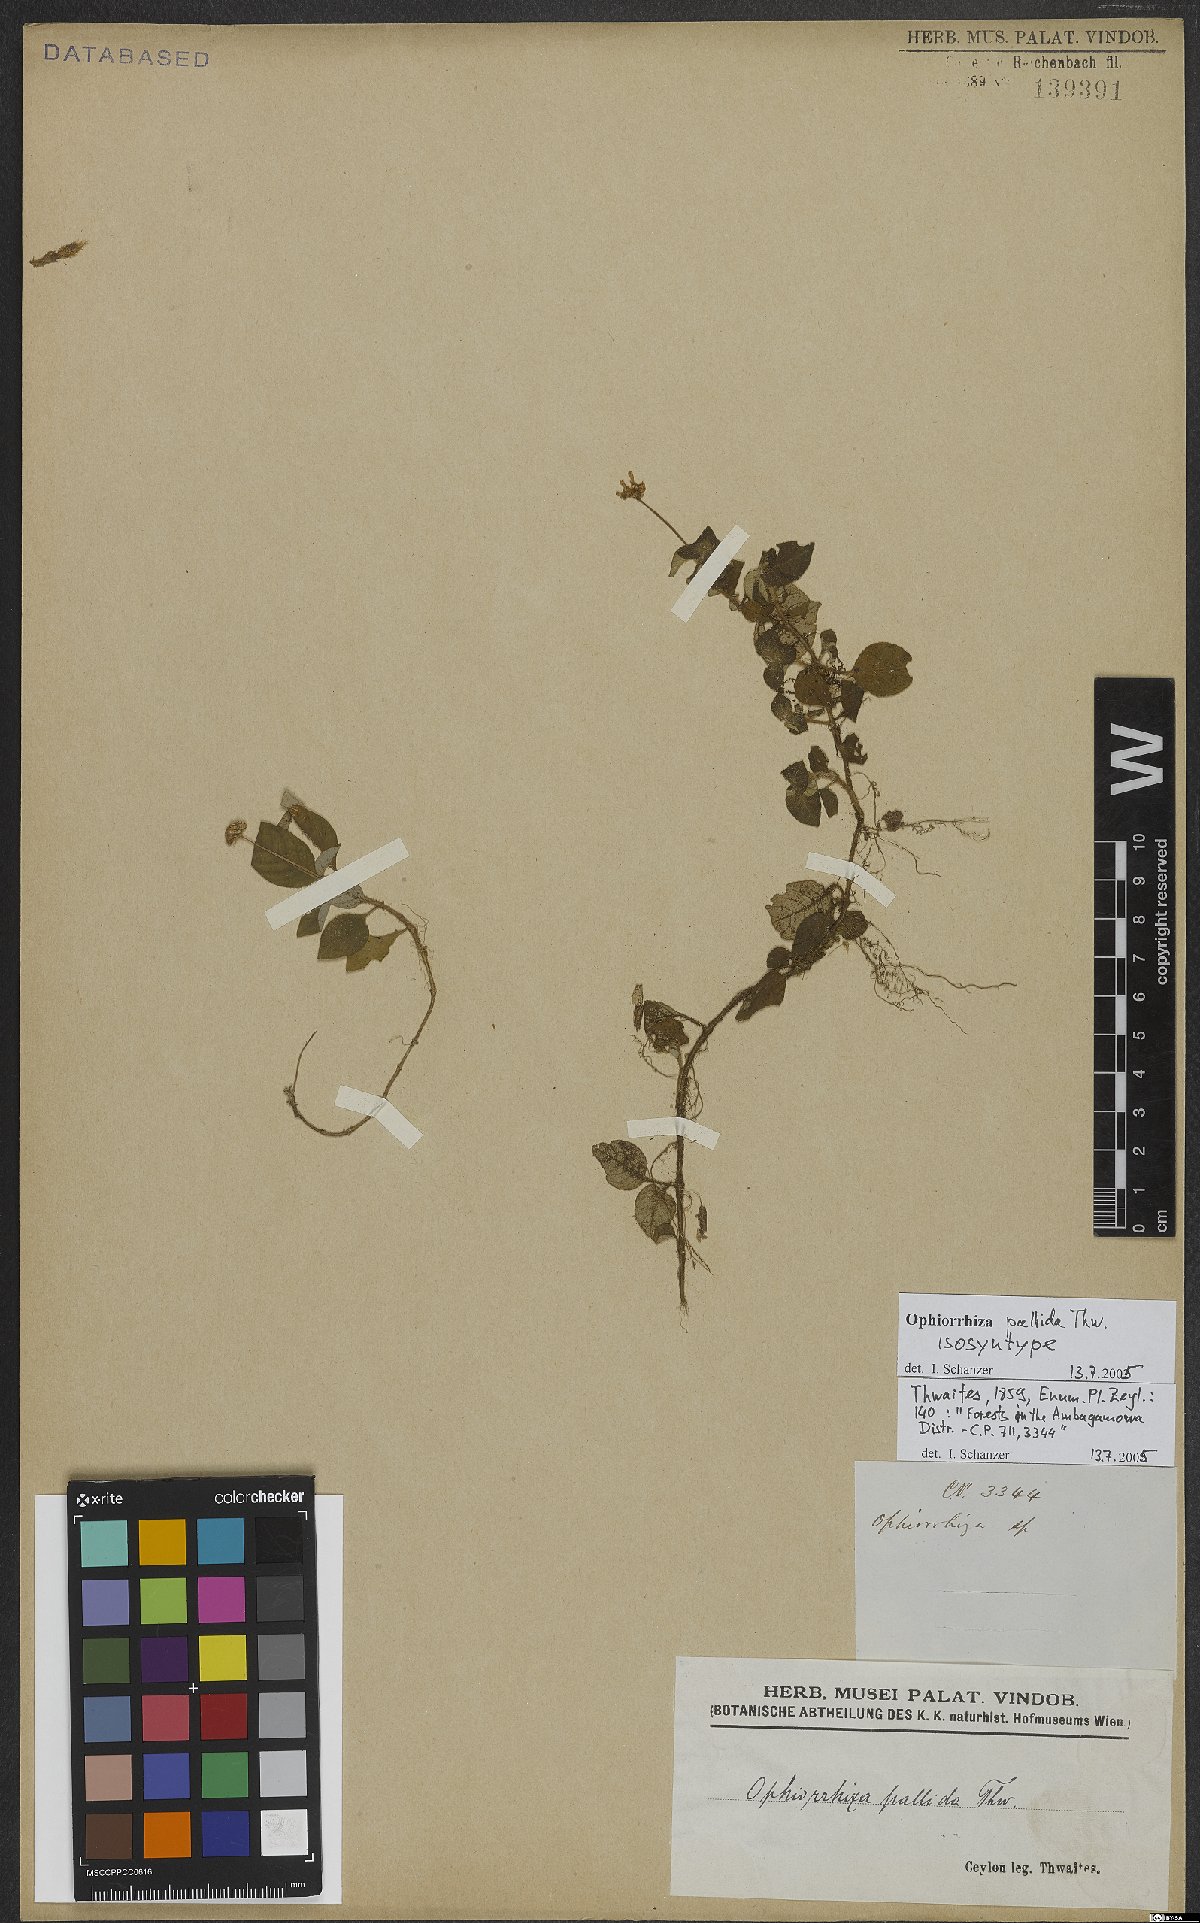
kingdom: Plantae
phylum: Tracheophyta
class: Magnoliopsida
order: Gentianales
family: Rubiaceae
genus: Ophiorrhiza
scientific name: Ophiorrhiza pallida
